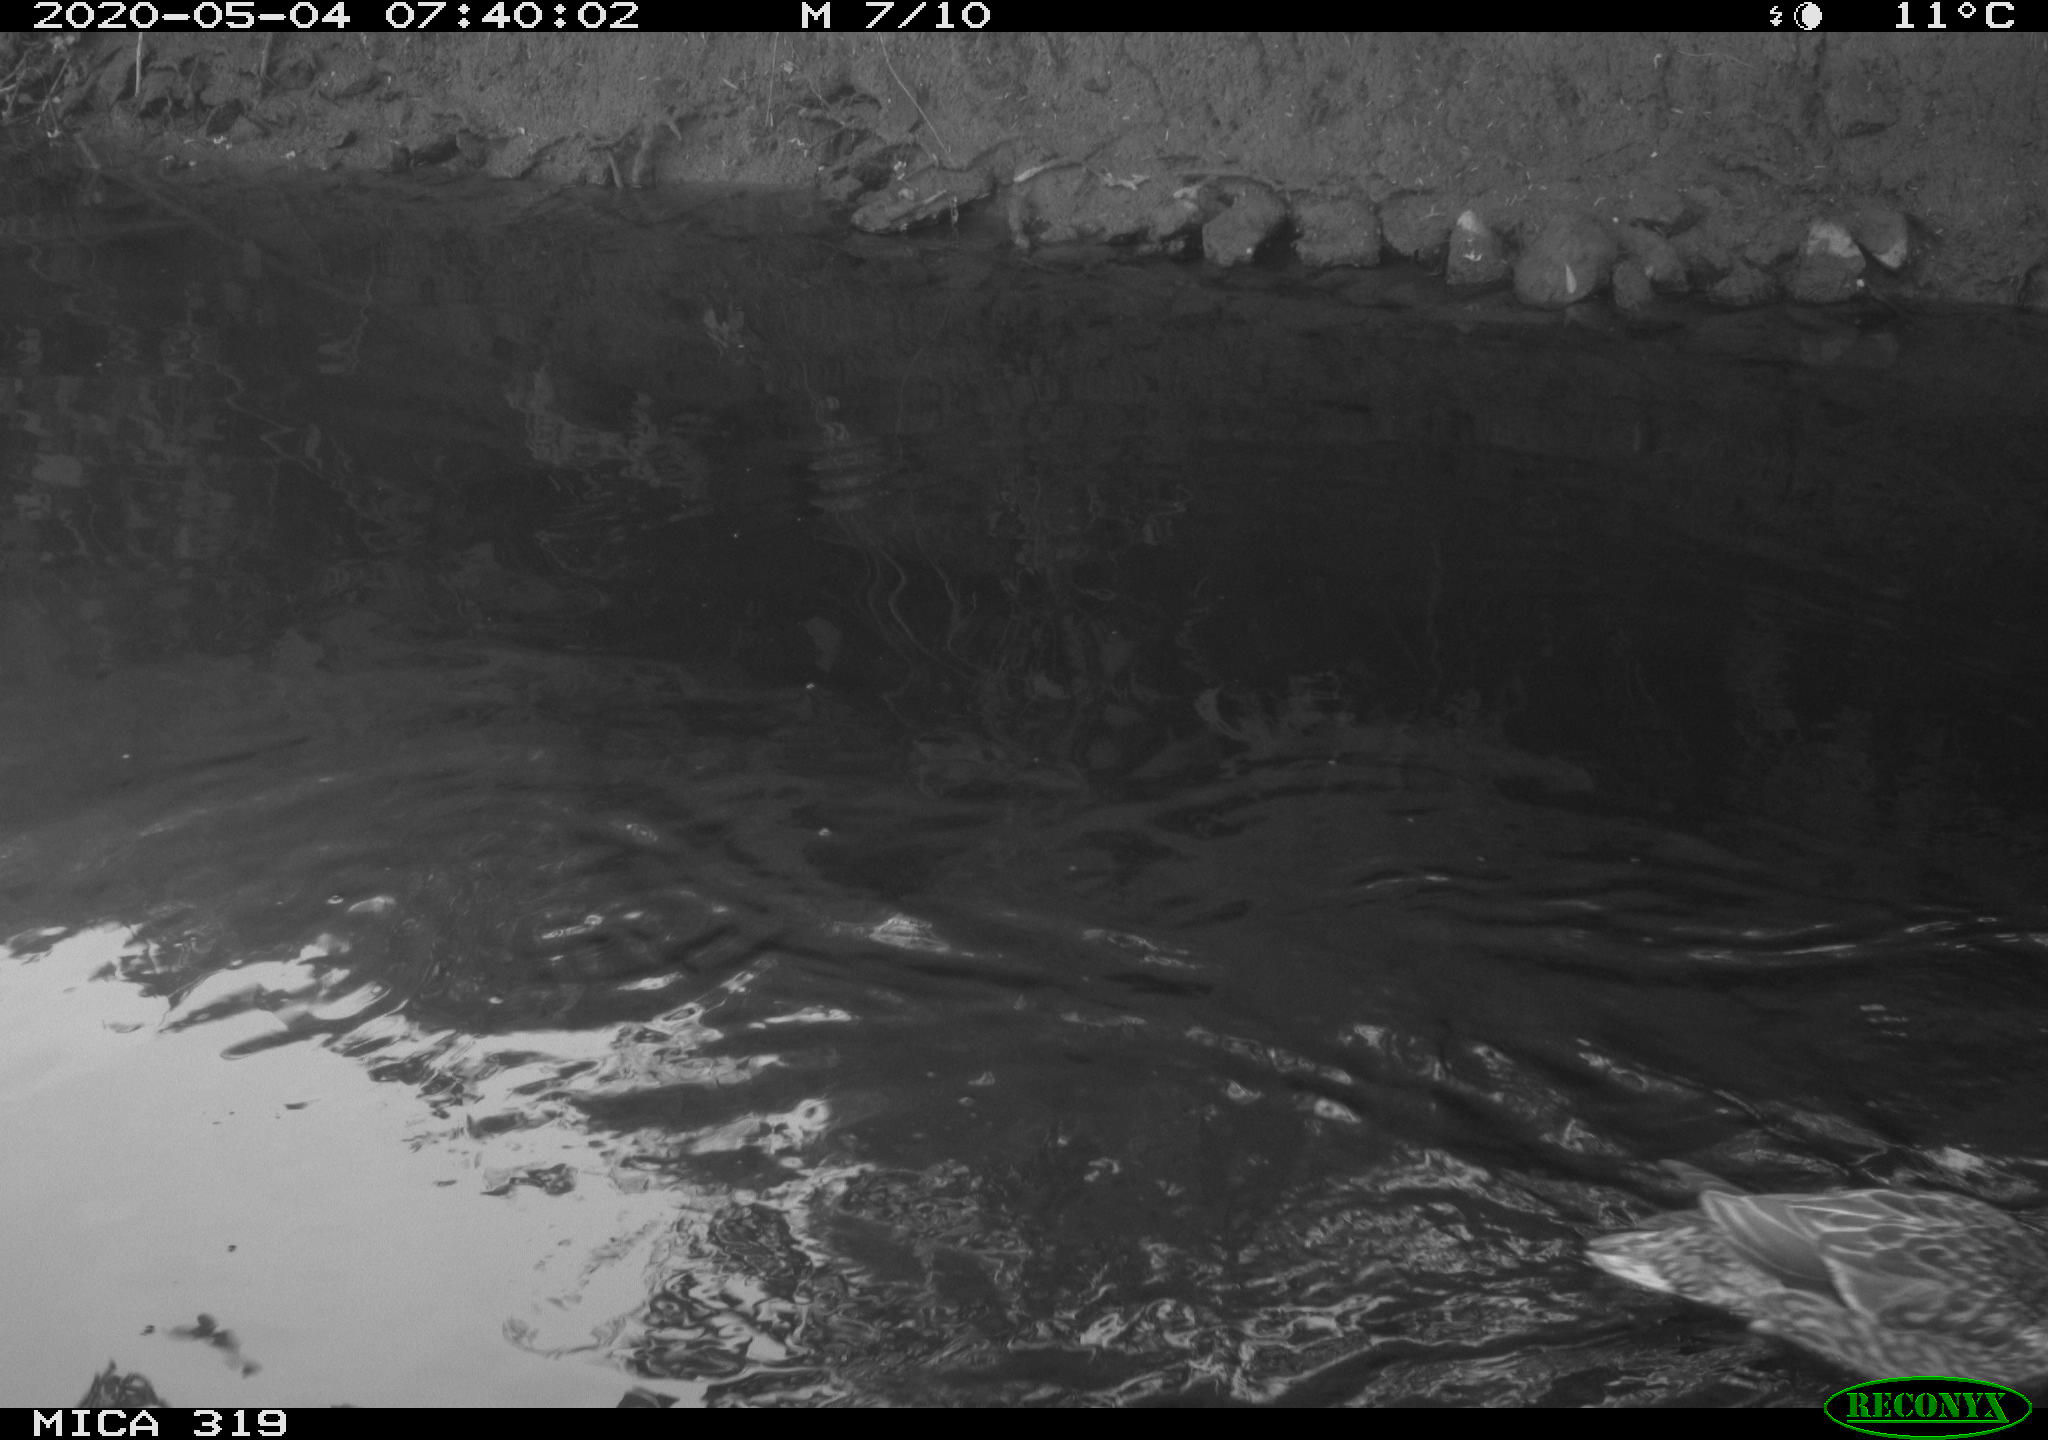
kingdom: Animalia
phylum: Chordata
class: Aves
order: Anseriformes
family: Anatidae
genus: Anas
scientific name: Anas platyrhynchos
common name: Mallard
